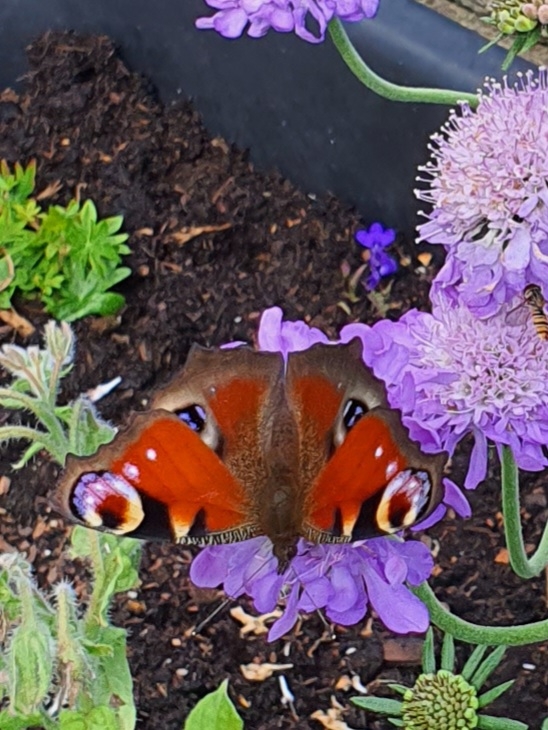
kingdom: Animalia
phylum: Arthropoda
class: Insecta
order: Lepidoptera
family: Nymphalidae
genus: Aglais
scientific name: Aglais io
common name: Dagpåfugleøje
